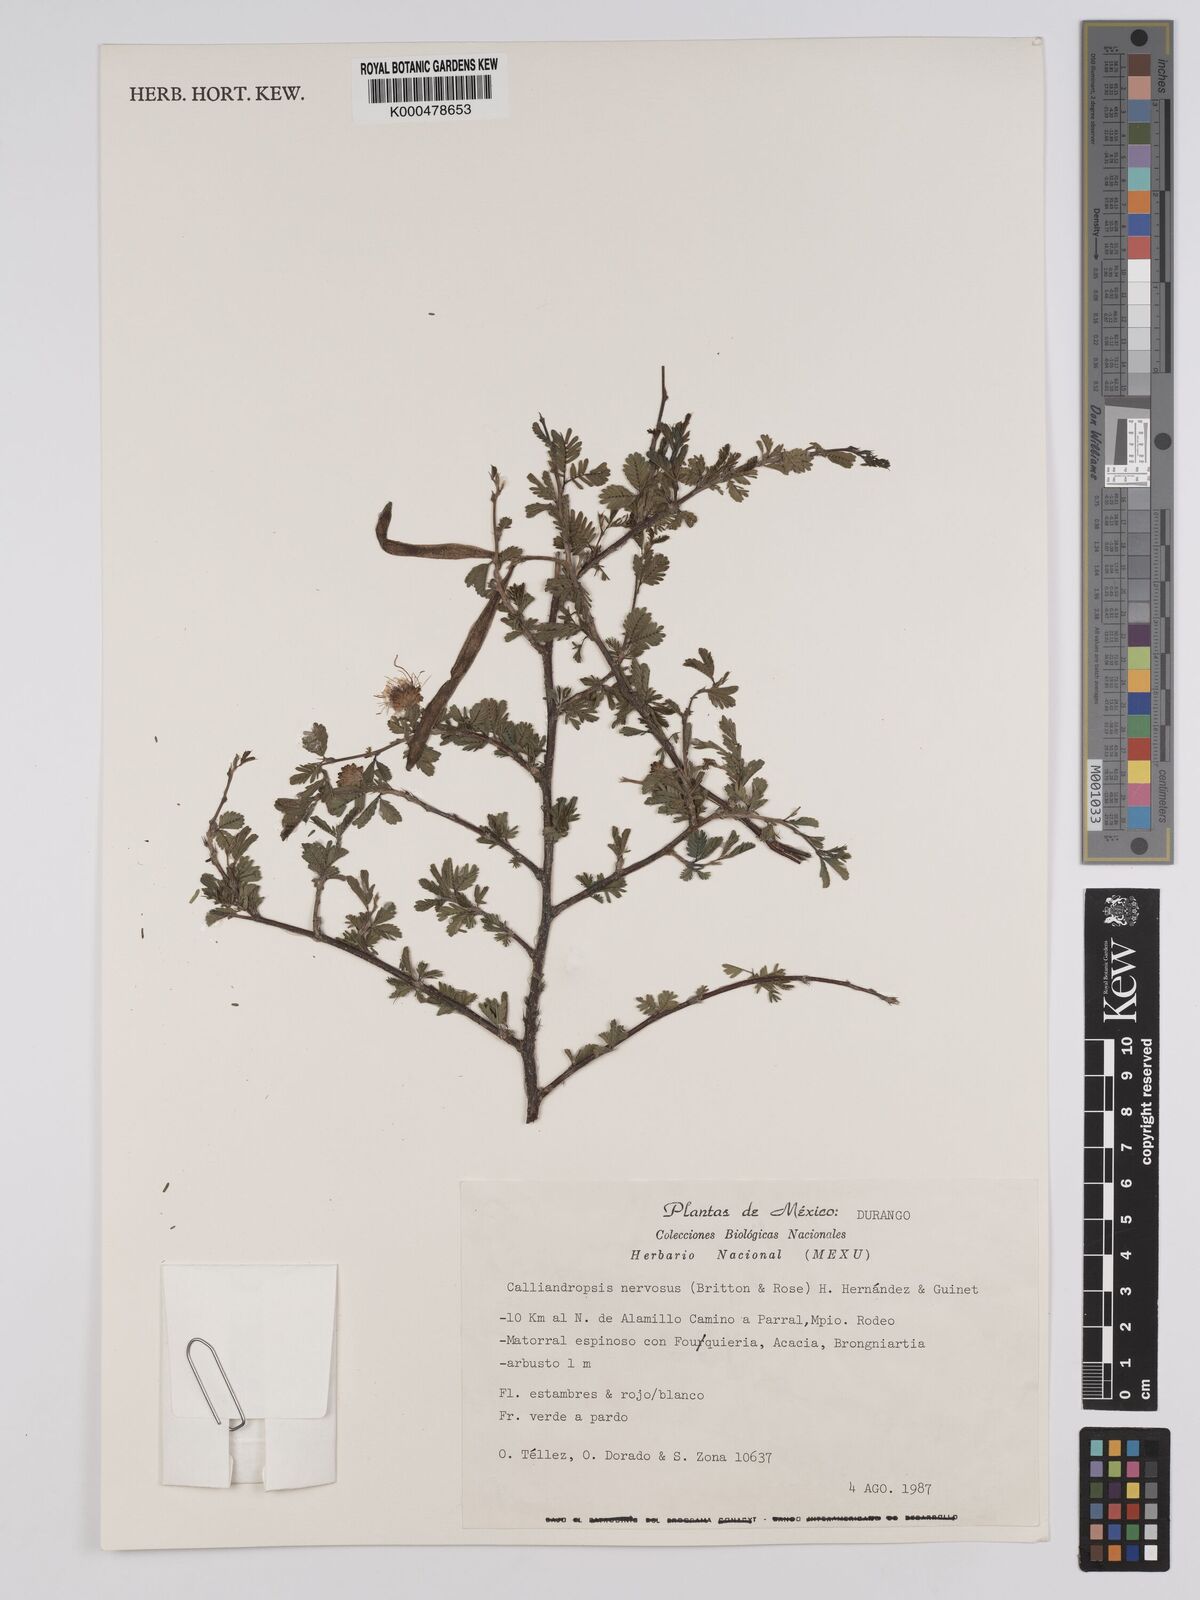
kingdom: Plantae
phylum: Tracheophyta
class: Magnoliopsida
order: Fabales
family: Fabaceae
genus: Calliandropsis
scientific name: Calliandropsis nervosa
